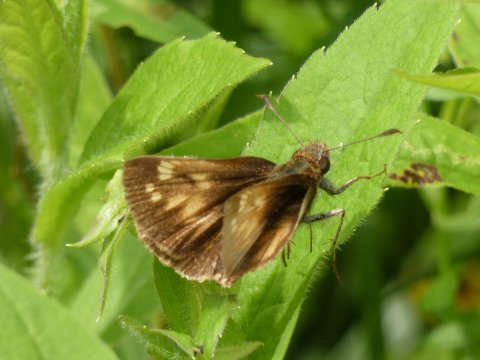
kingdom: Animalia
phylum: Arthropoda
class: Insecta
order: Lepidoptera
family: Hesperiidae
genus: Lon
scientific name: Lon hobomok
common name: Hobomok Skipper
